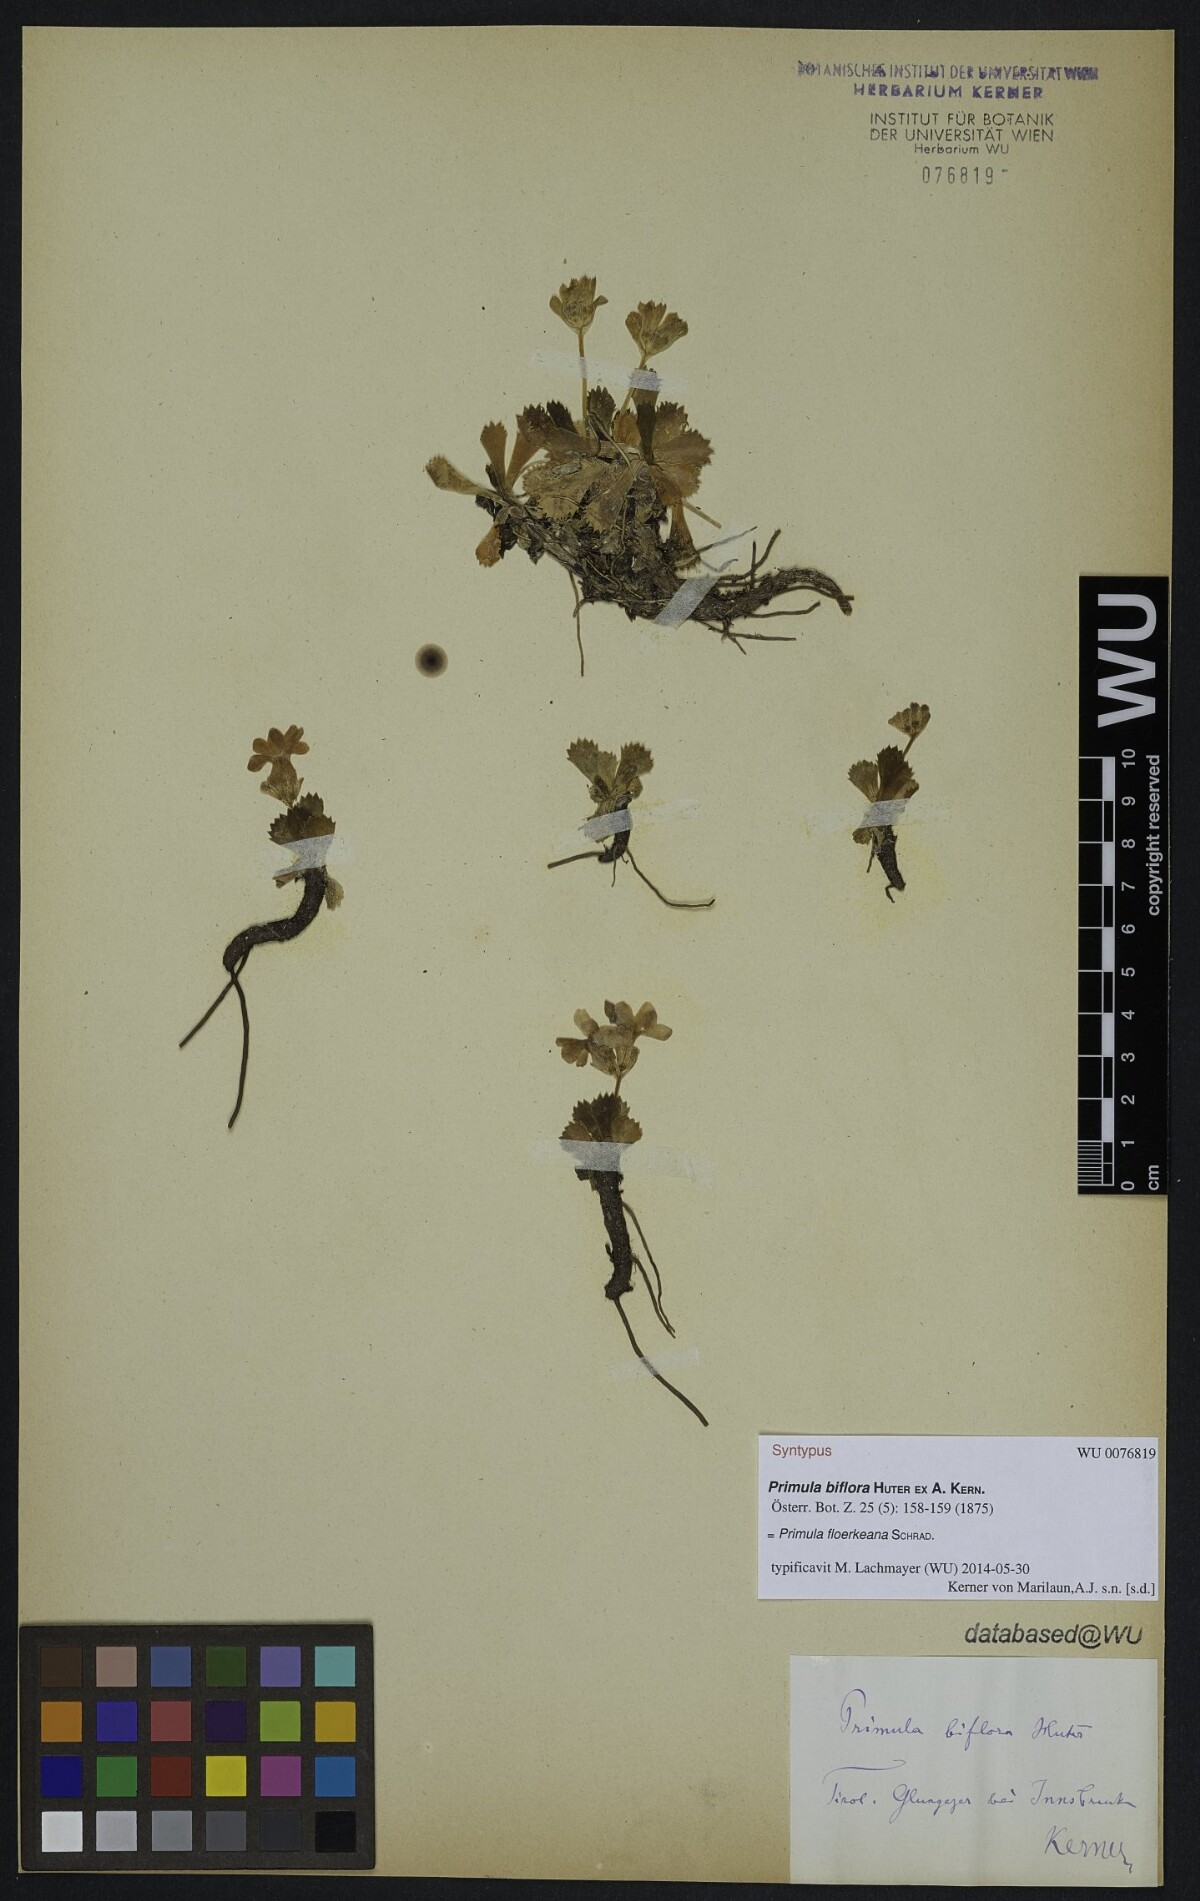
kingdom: Plantae
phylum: Tracheophyta
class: Magnoliopsida
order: Ericales
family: Primulaceae
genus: Primula
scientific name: Primula floerkeana
